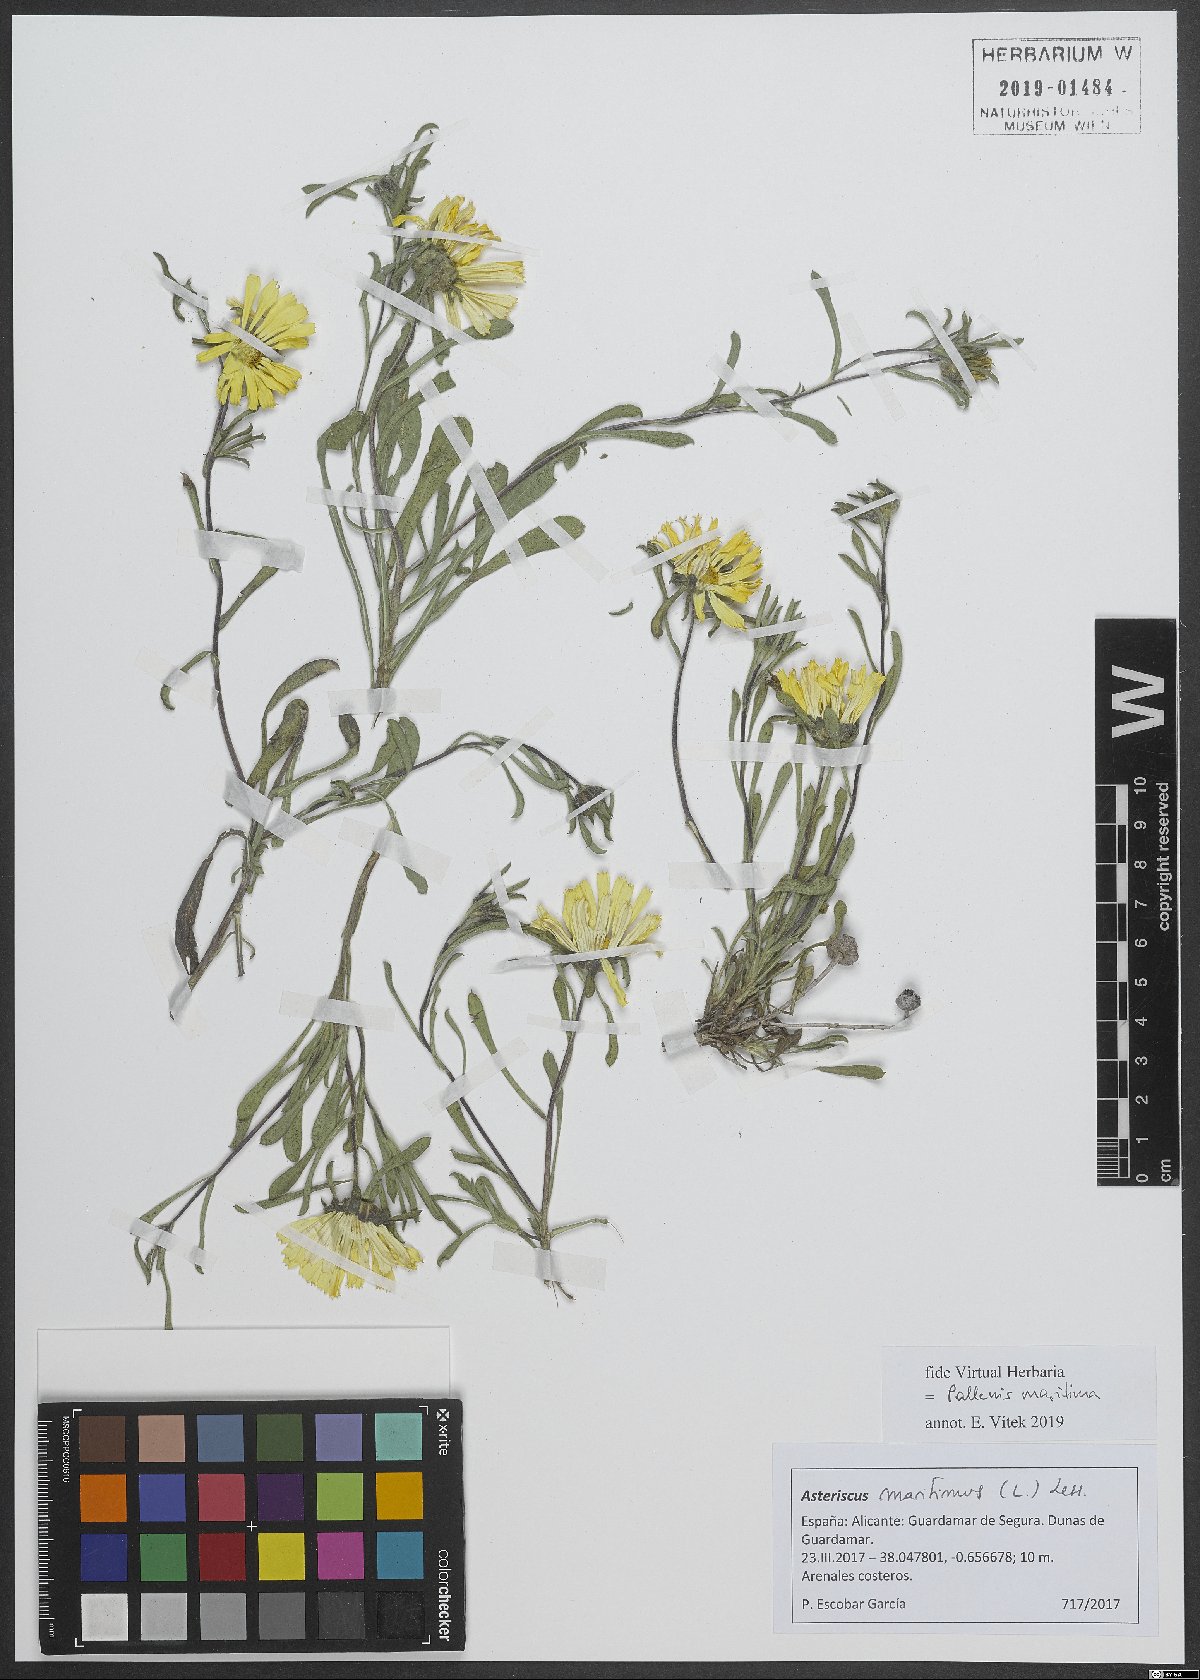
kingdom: Plantae
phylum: Tracheophyta
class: Magnoliopsida
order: Asterales
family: Asteraceae
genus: Pallenis
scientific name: Pallenis maritima
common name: Golden coin daisy
